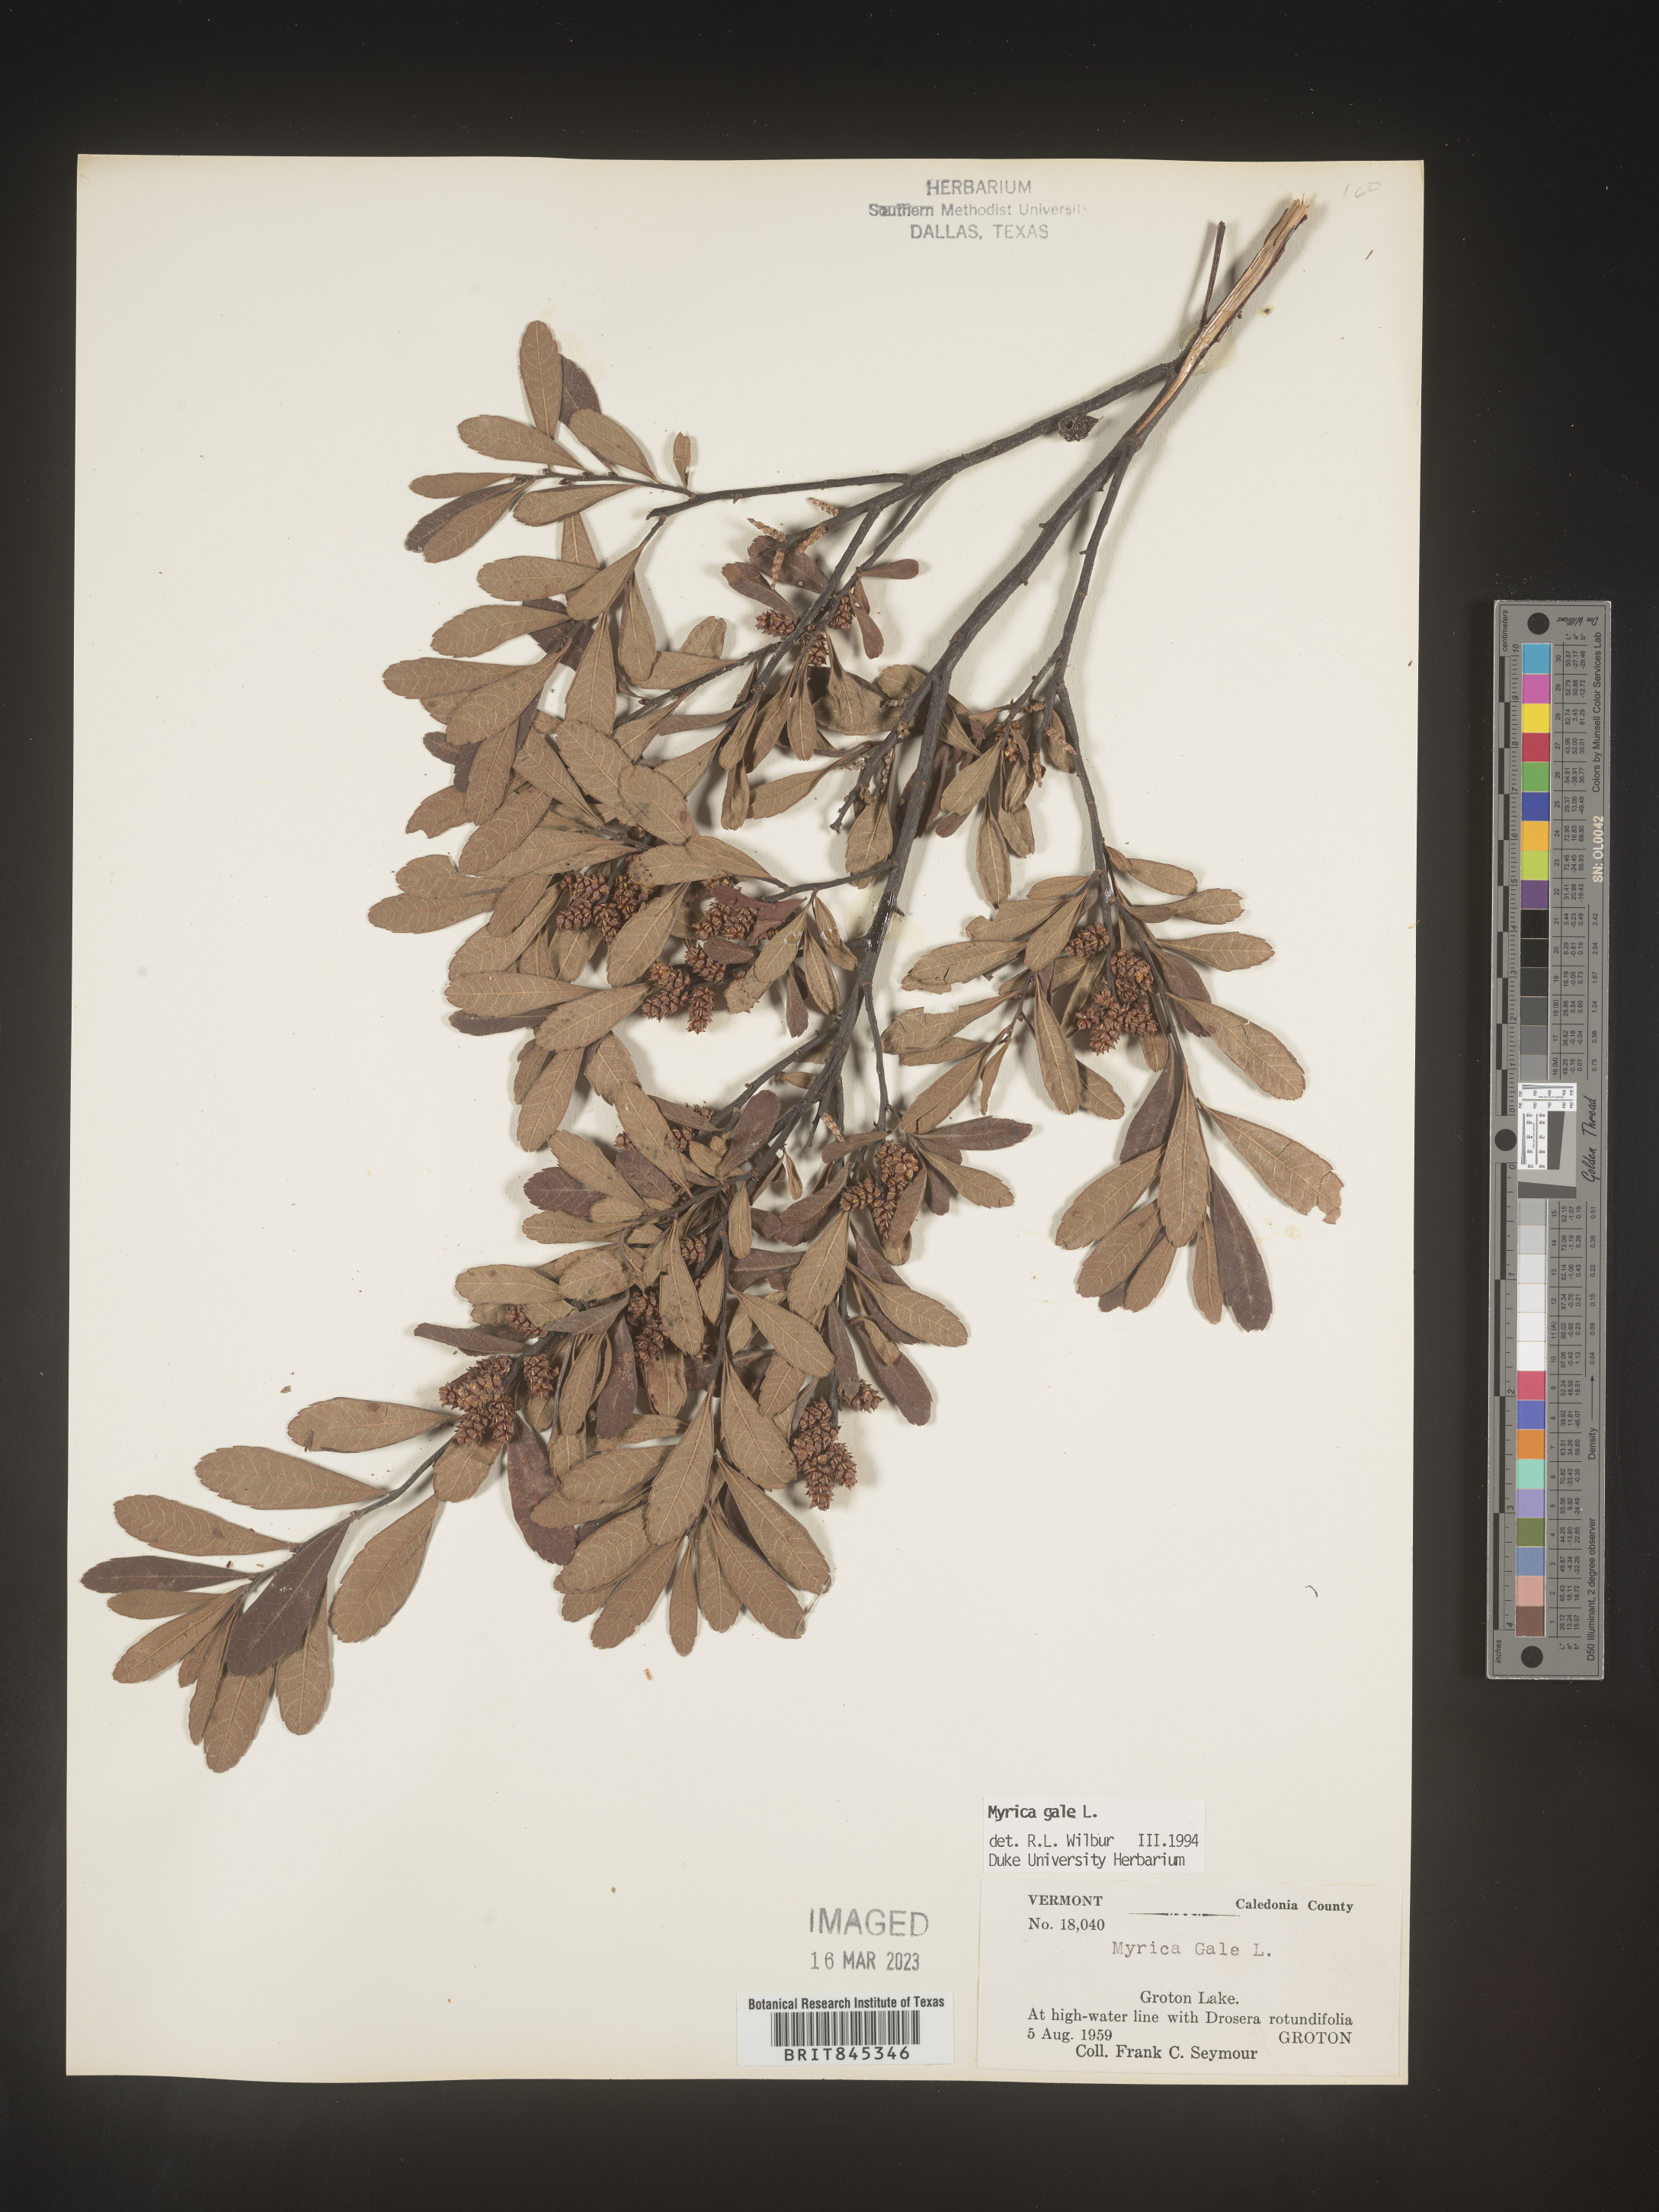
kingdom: Plantae
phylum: Tracheophyta
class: Magnoliopsida
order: Fagales
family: Myricaceae
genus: Myrica
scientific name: Myrica gale
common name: Sweet gale
